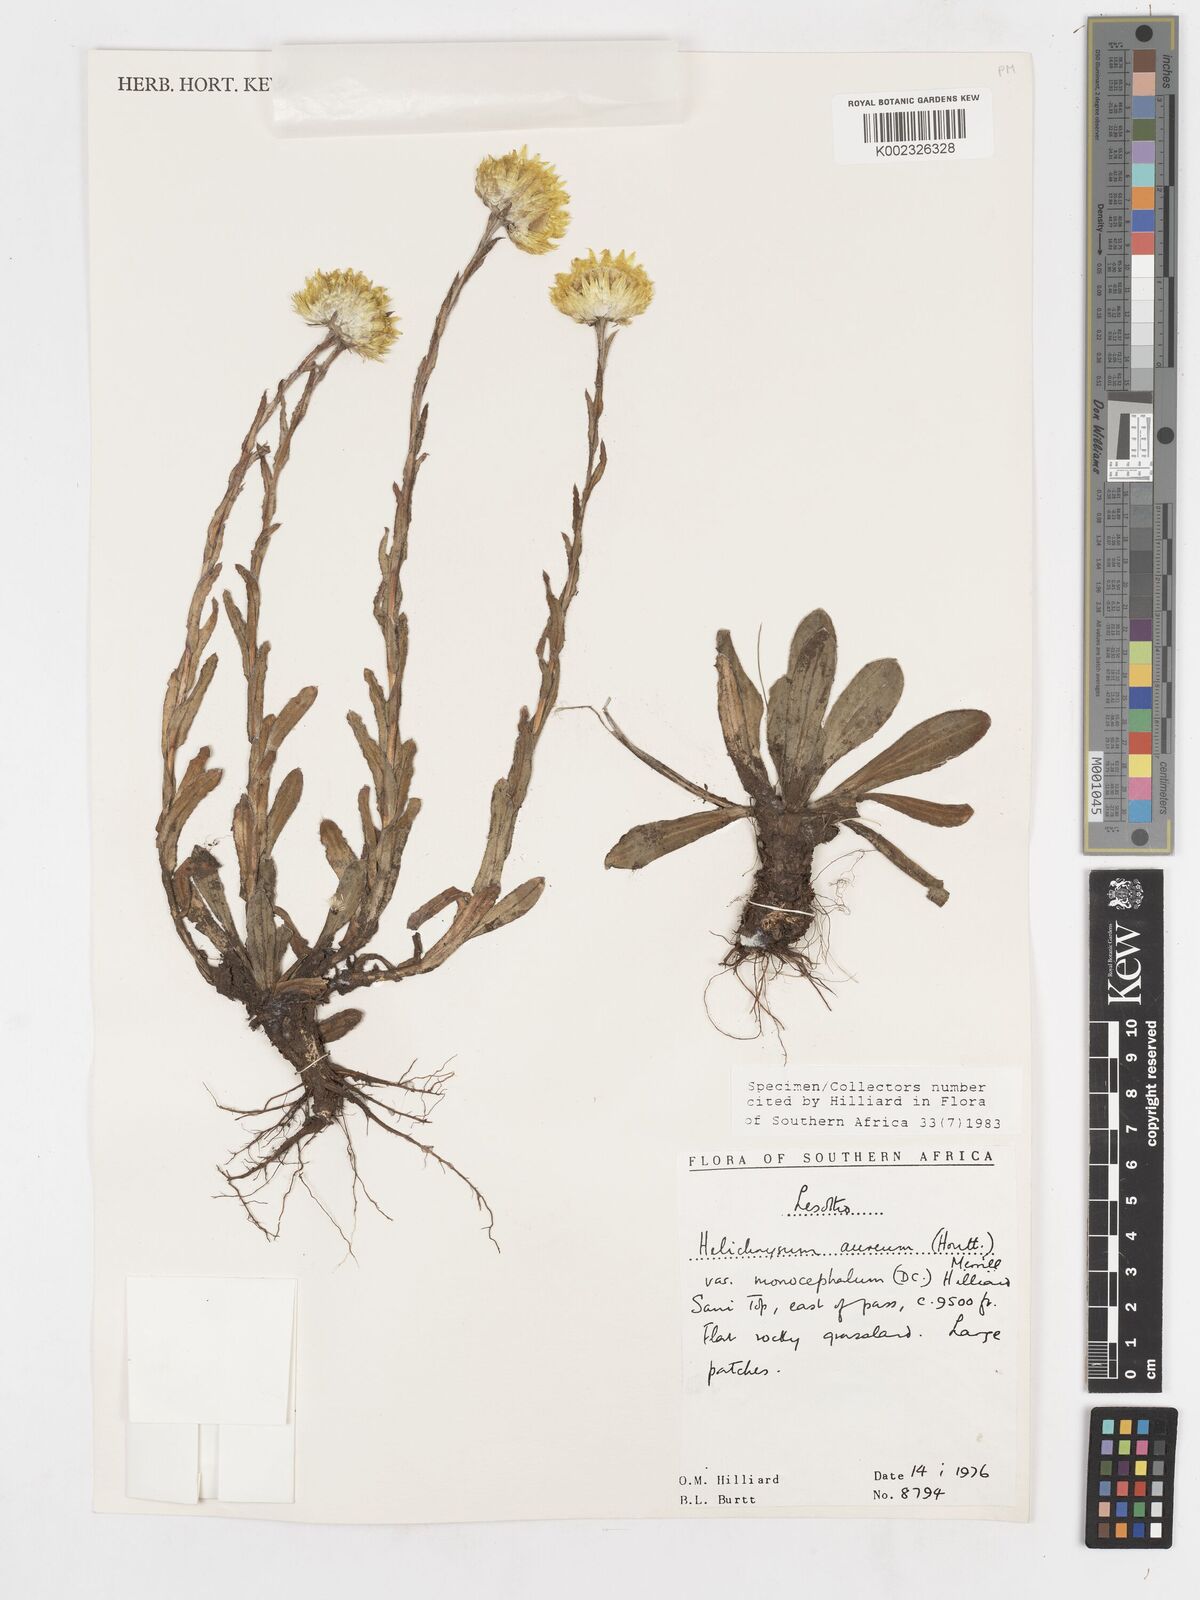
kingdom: Plantae
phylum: Tracheophyta
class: Magnoliopsida
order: Asterales
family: Asteraceae
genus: Helichrysum
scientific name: Helichrysum aureum
